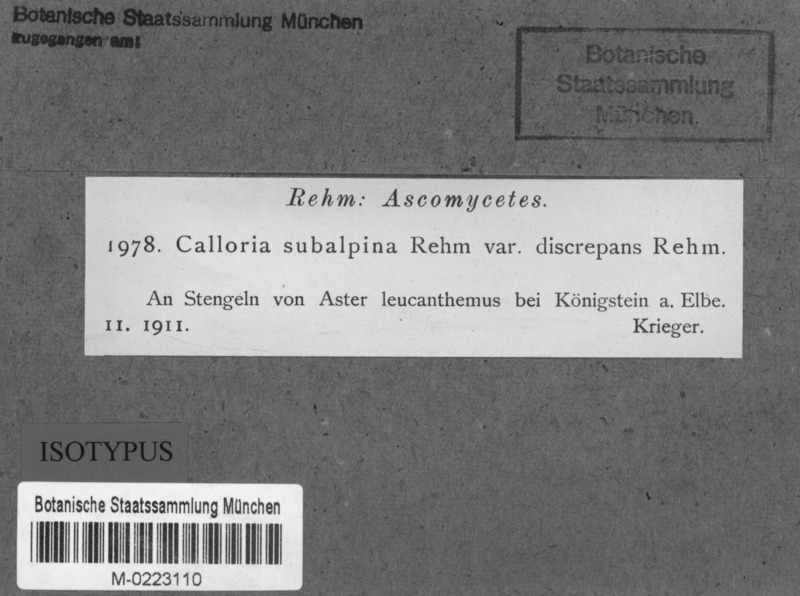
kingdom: Fungi
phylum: Ascomycota
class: Leotiomycetes
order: Helotiales
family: Pezizellaceae
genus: Micropeziza
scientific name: Micropeziza umbrinella
